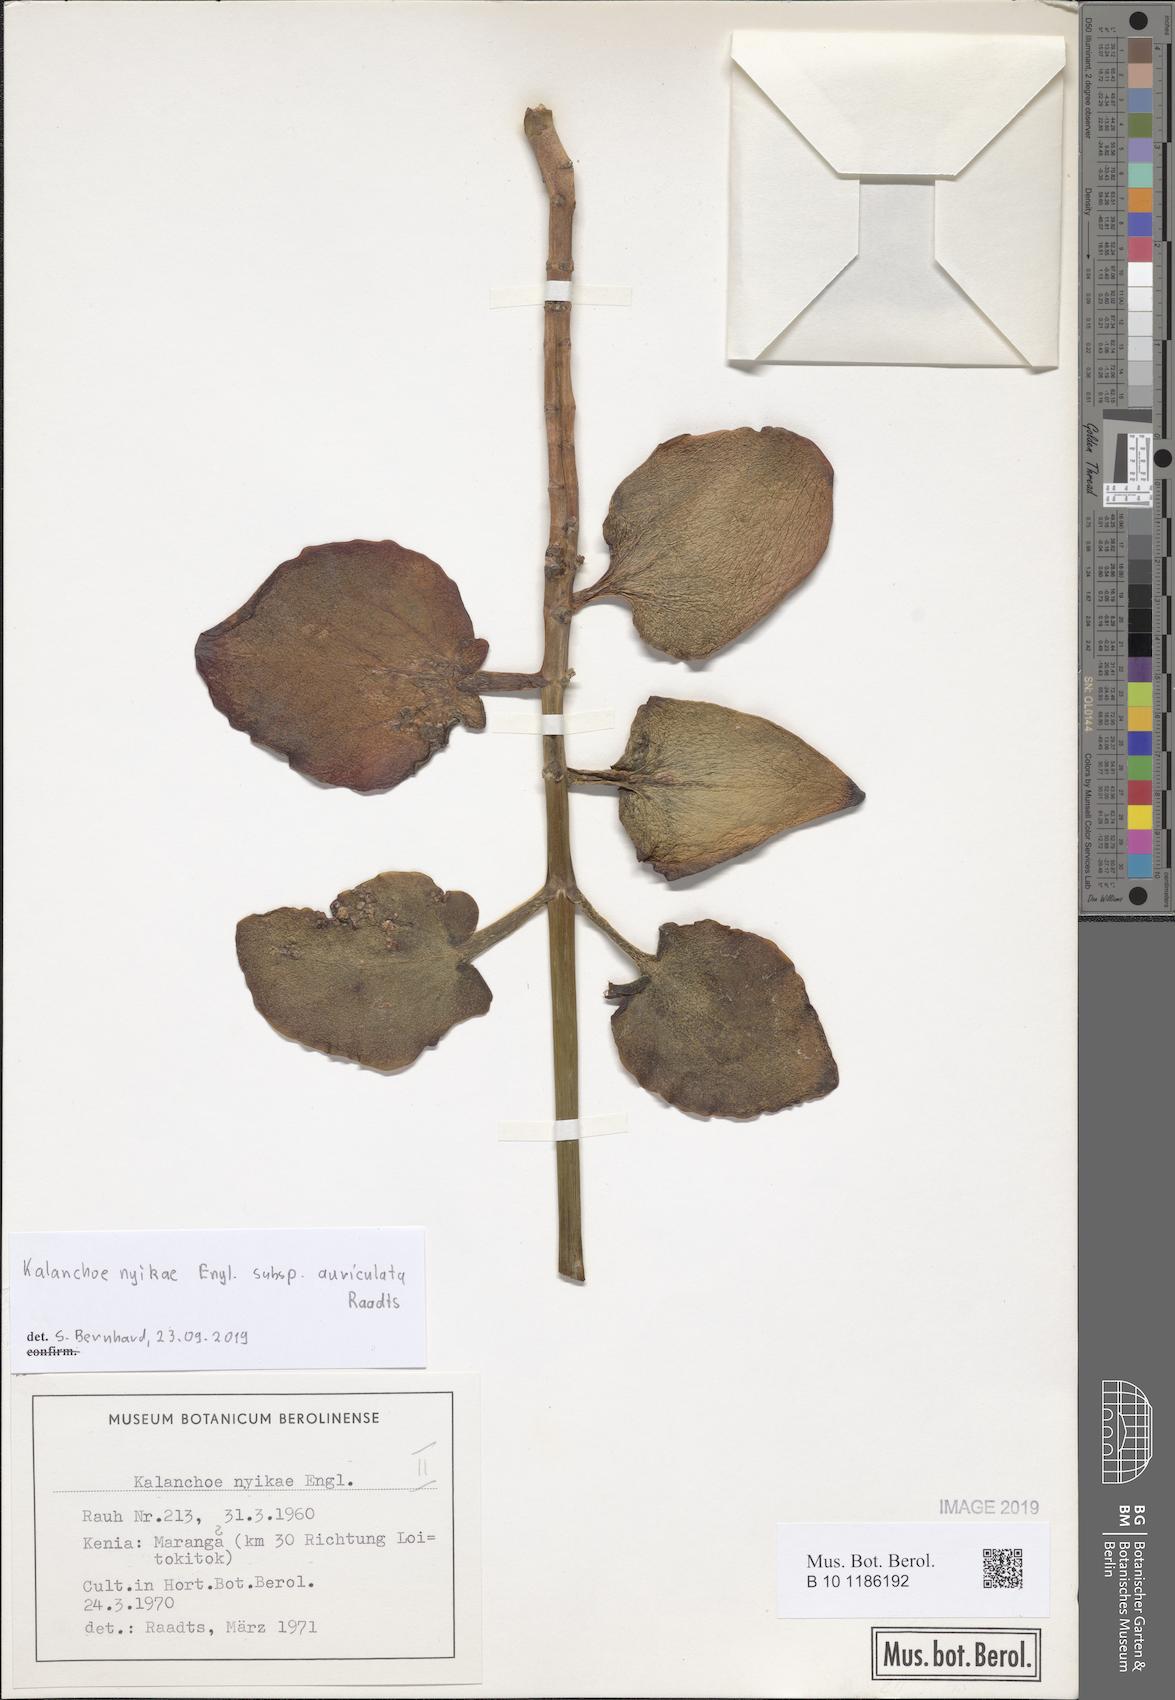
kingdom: Plantae
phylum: Tracheophyta
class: Magnoliopsida
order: Saxifragales
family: Crassulaceae
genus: Kalanchoe
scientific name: Kalanchoe auriculata
